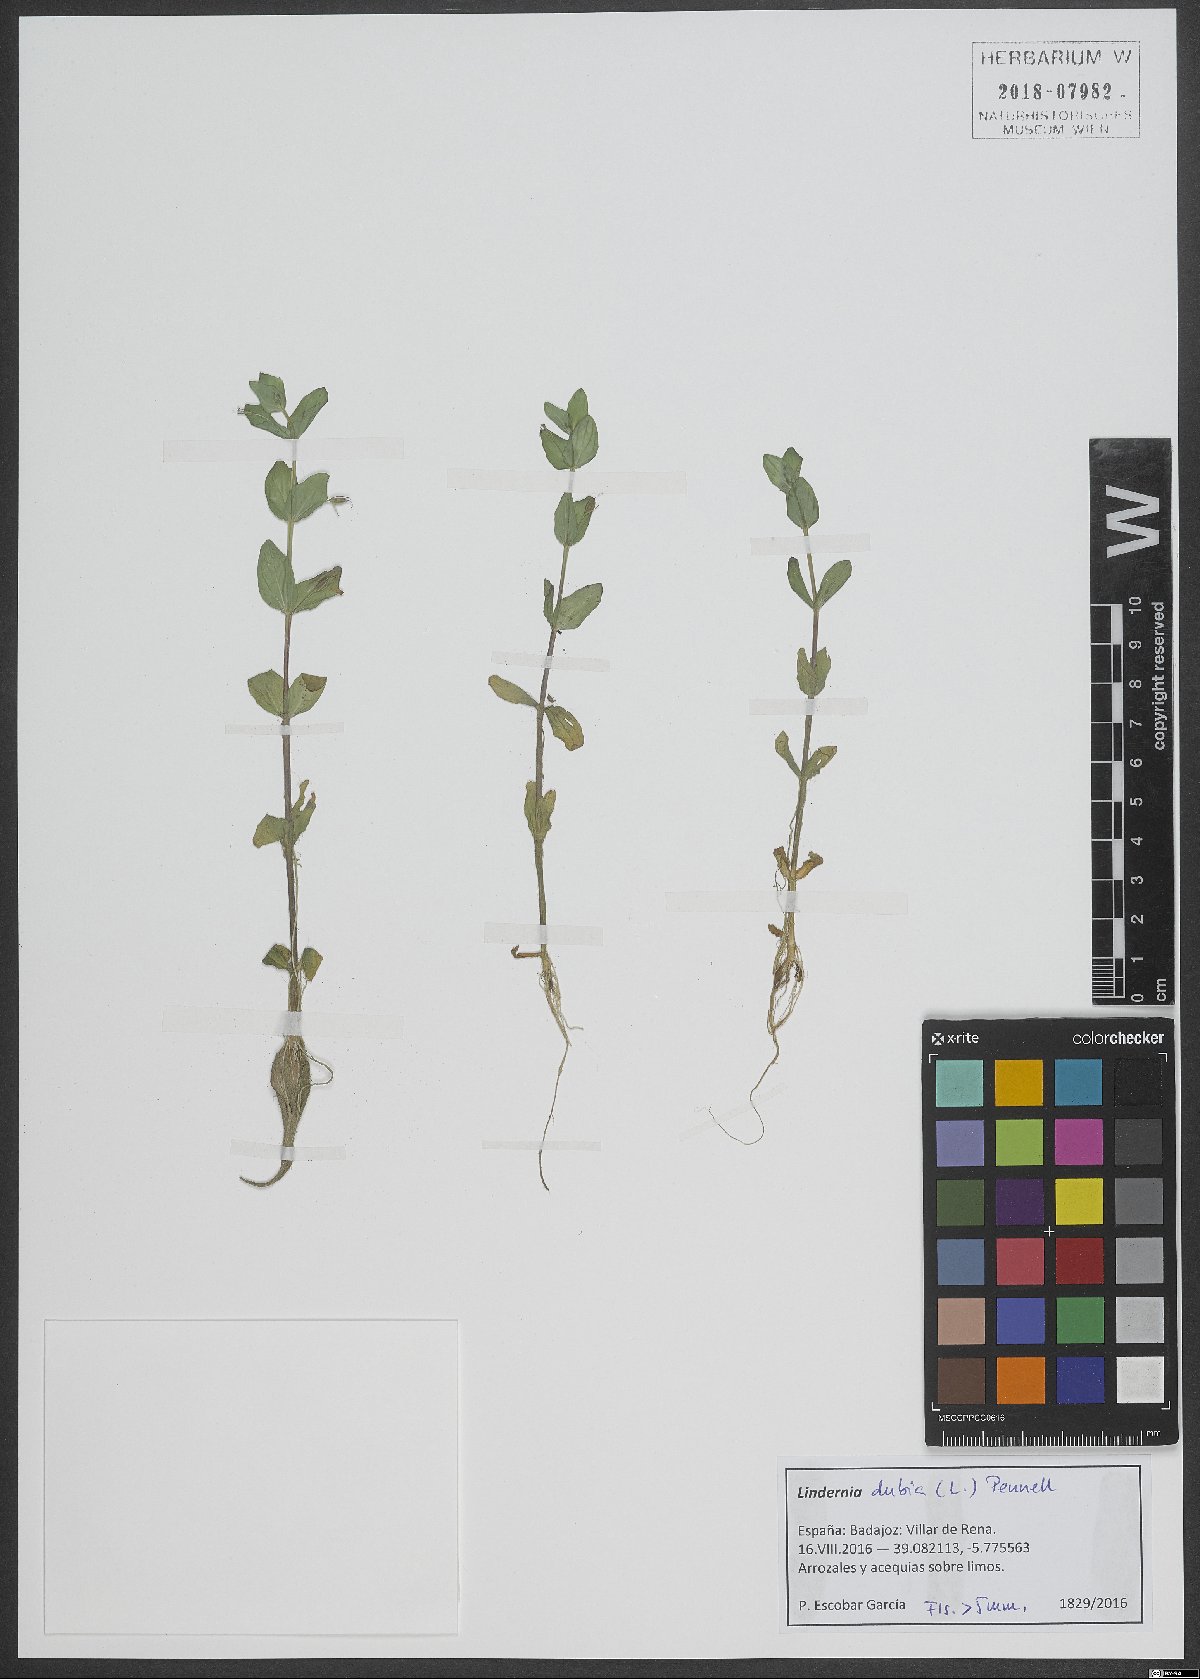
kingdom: Plantae
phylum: Tracheophyta
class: Magnoliopsida
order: Lamiales
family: Linderniaceae
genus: Lindernia
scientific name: Lindernia dubia
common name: Annual false pimpernel
